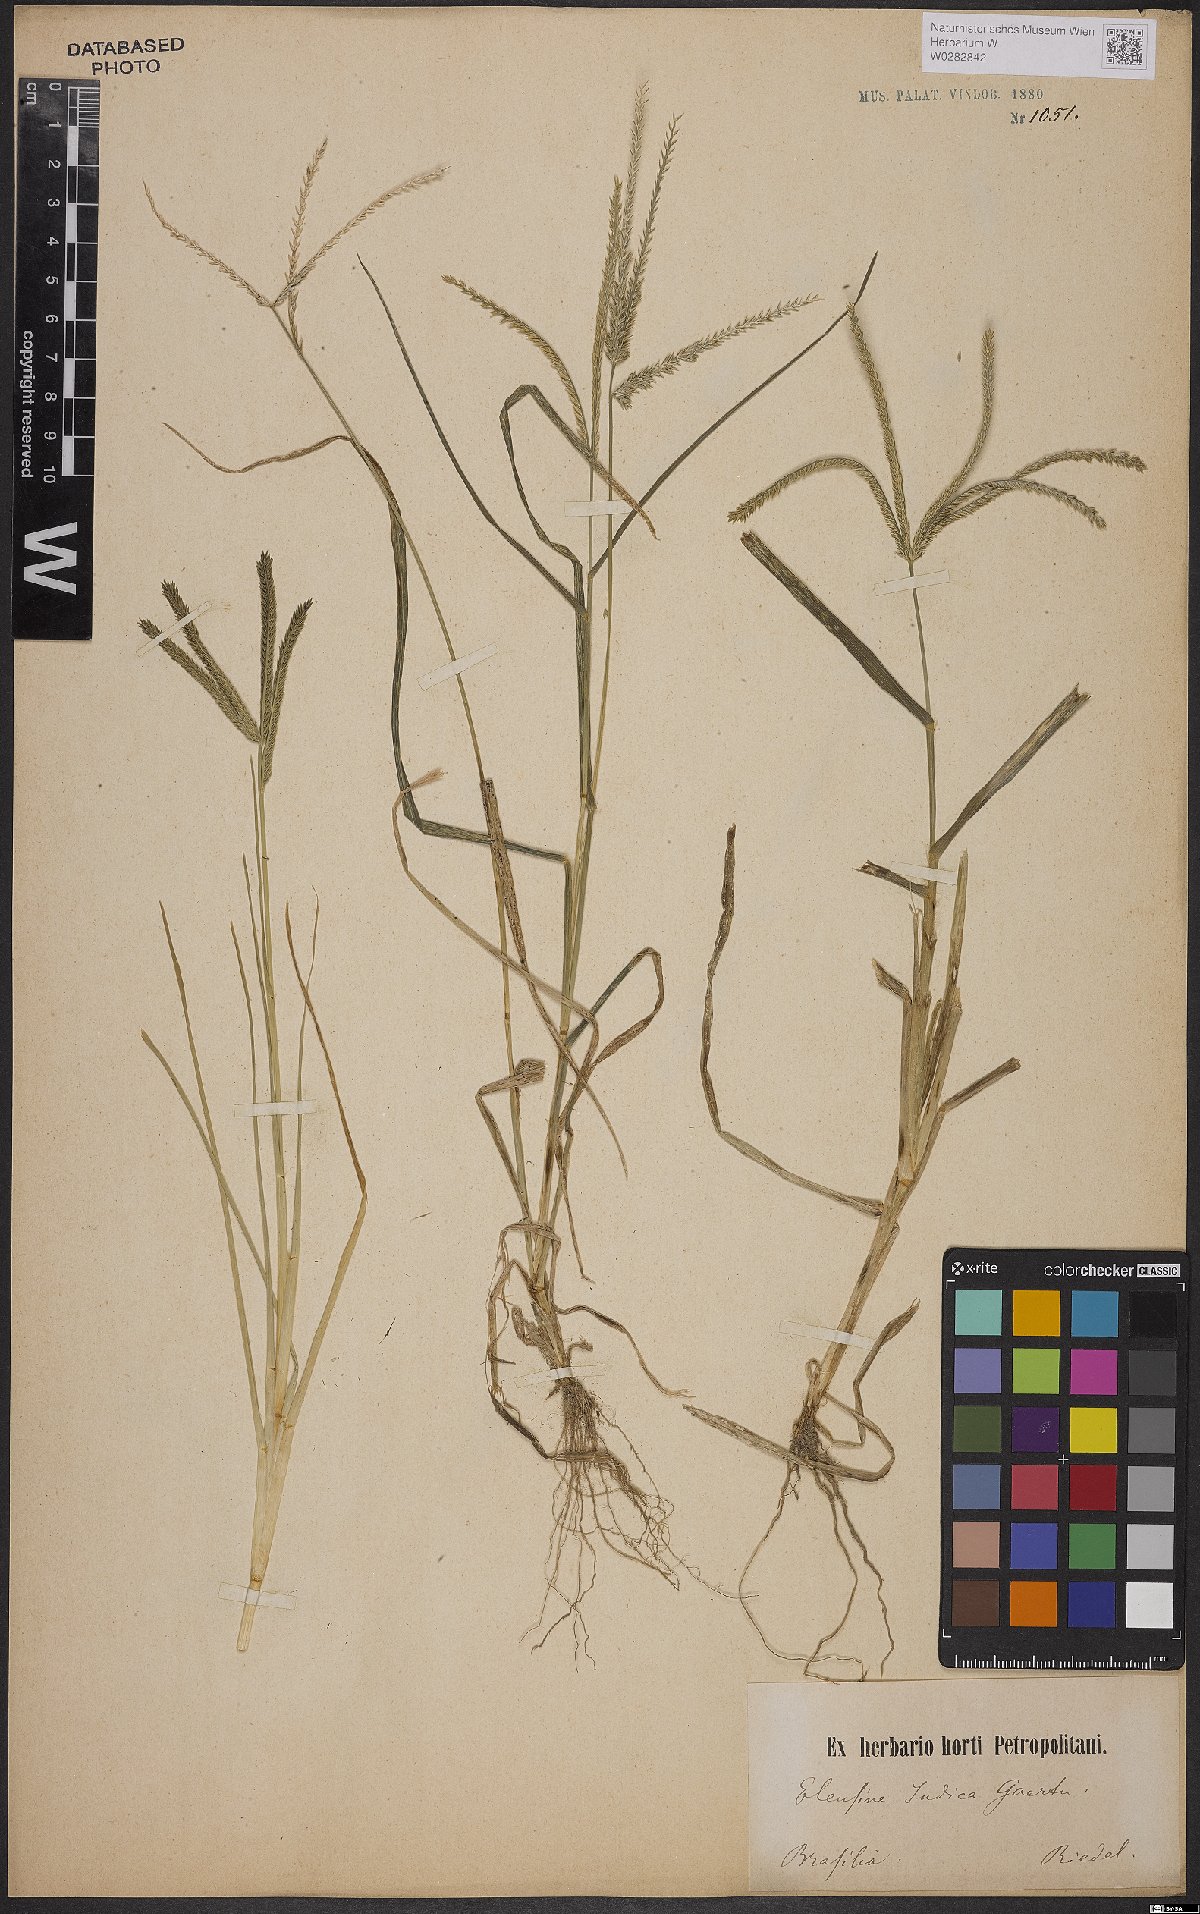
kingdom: Plantae
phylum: Tracheophyta
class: Liliopsida
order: Poales
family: Poaceae
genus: Eleusine
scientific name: Eleusine indica
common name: Yard-grass
